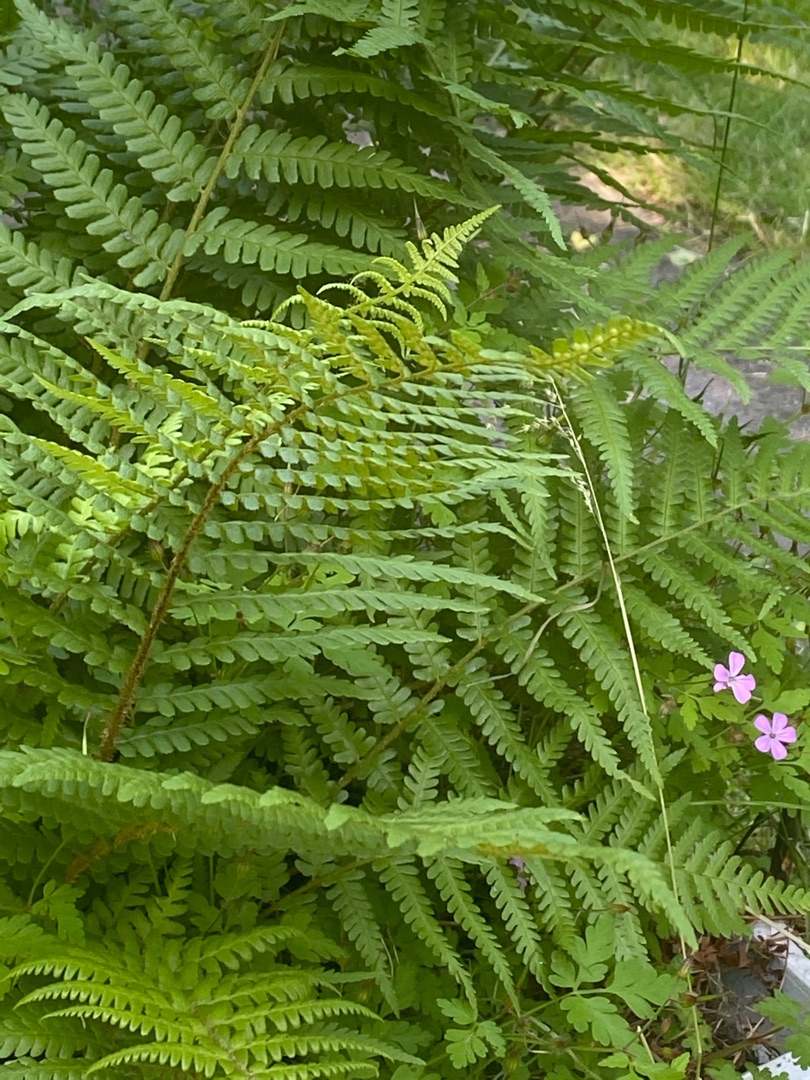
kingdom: Plantae
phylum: Tracheophyta
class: Polypodiopsida
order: Polypodiales
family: Dryopteridaceae
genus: Dryopteris
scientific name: Dryopteris filix-mas
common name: Almindelig mangeløv
